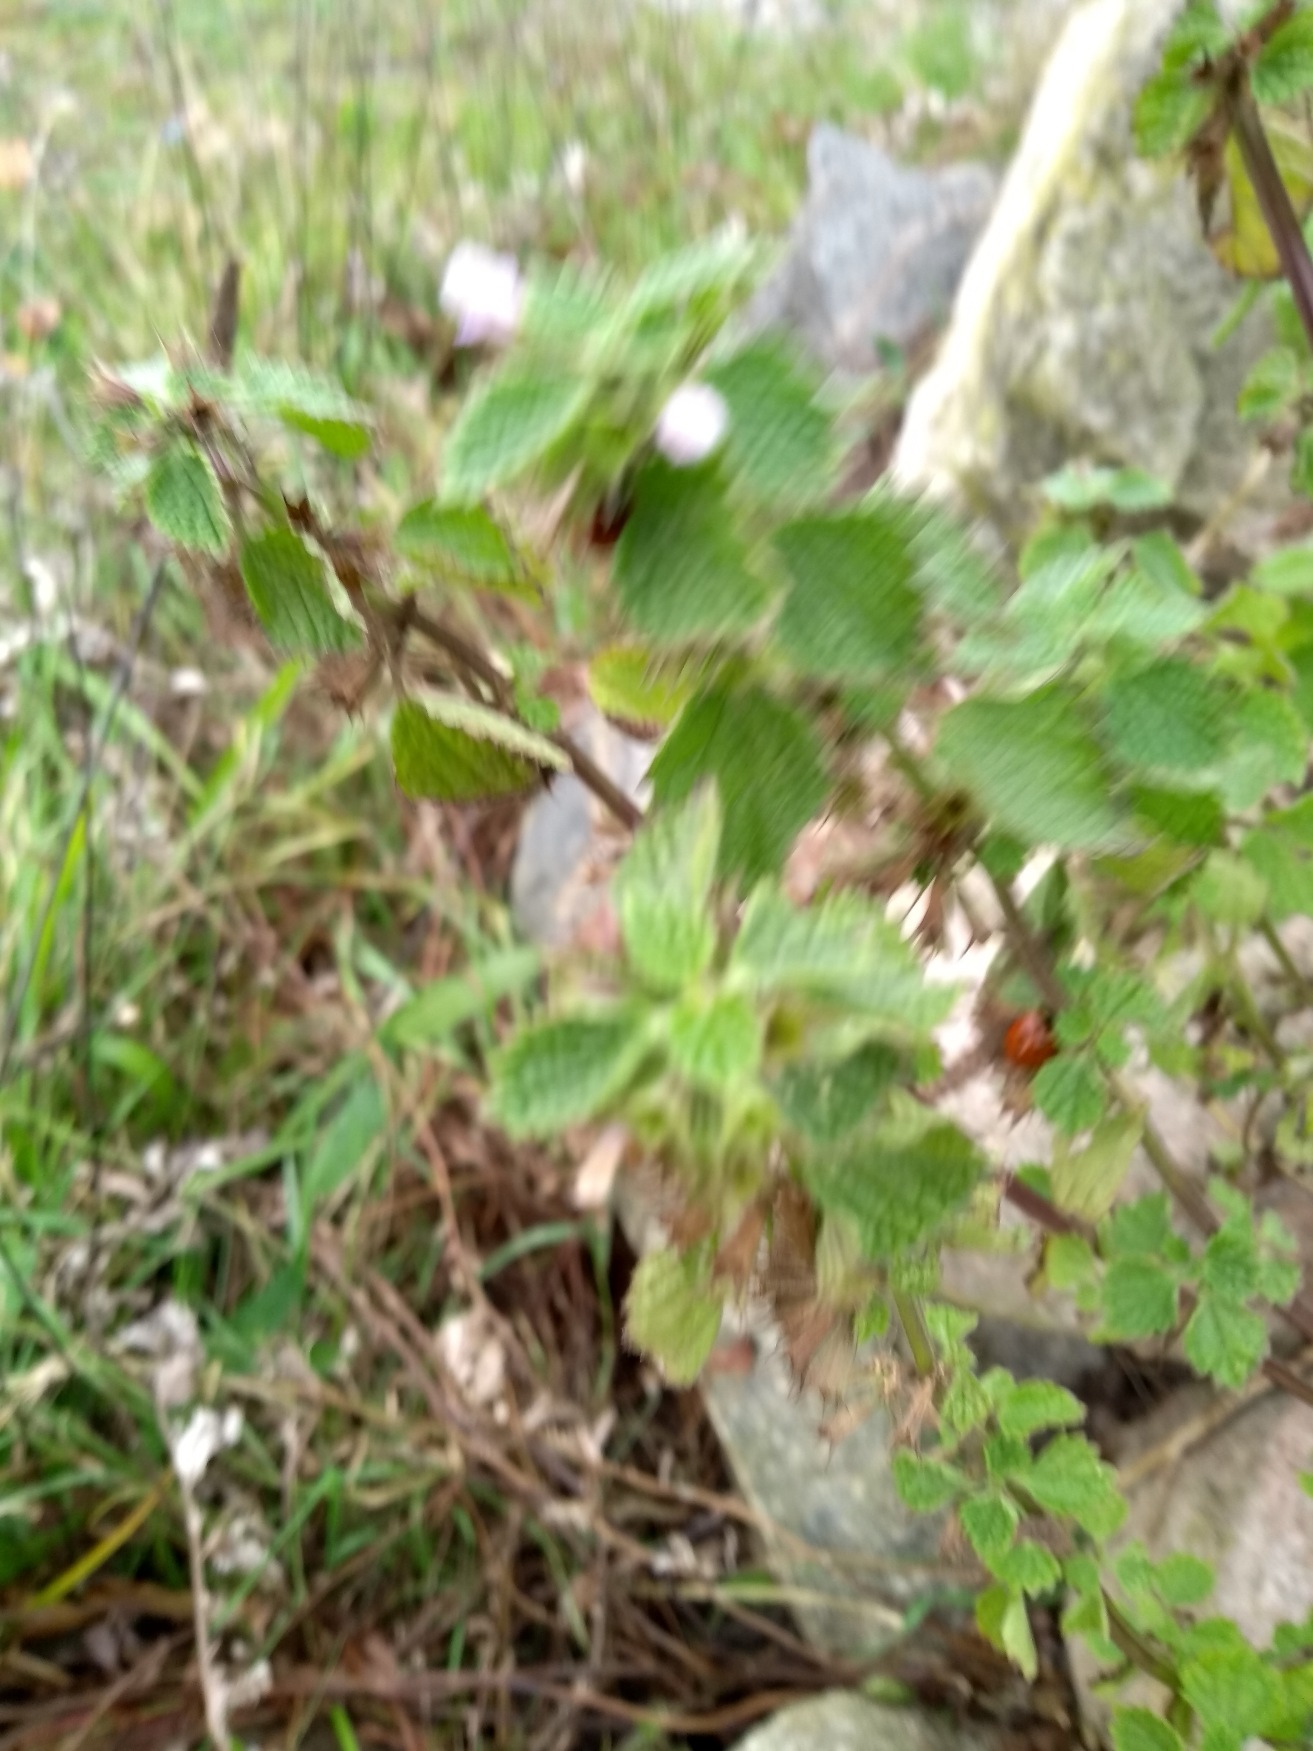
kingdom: Plantae
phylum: Tracheophyta
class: Magnoliopsida
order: Lamiales
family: Lamiaceae
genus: Ballota
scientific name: Ballota nigra
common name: Tandbæger
